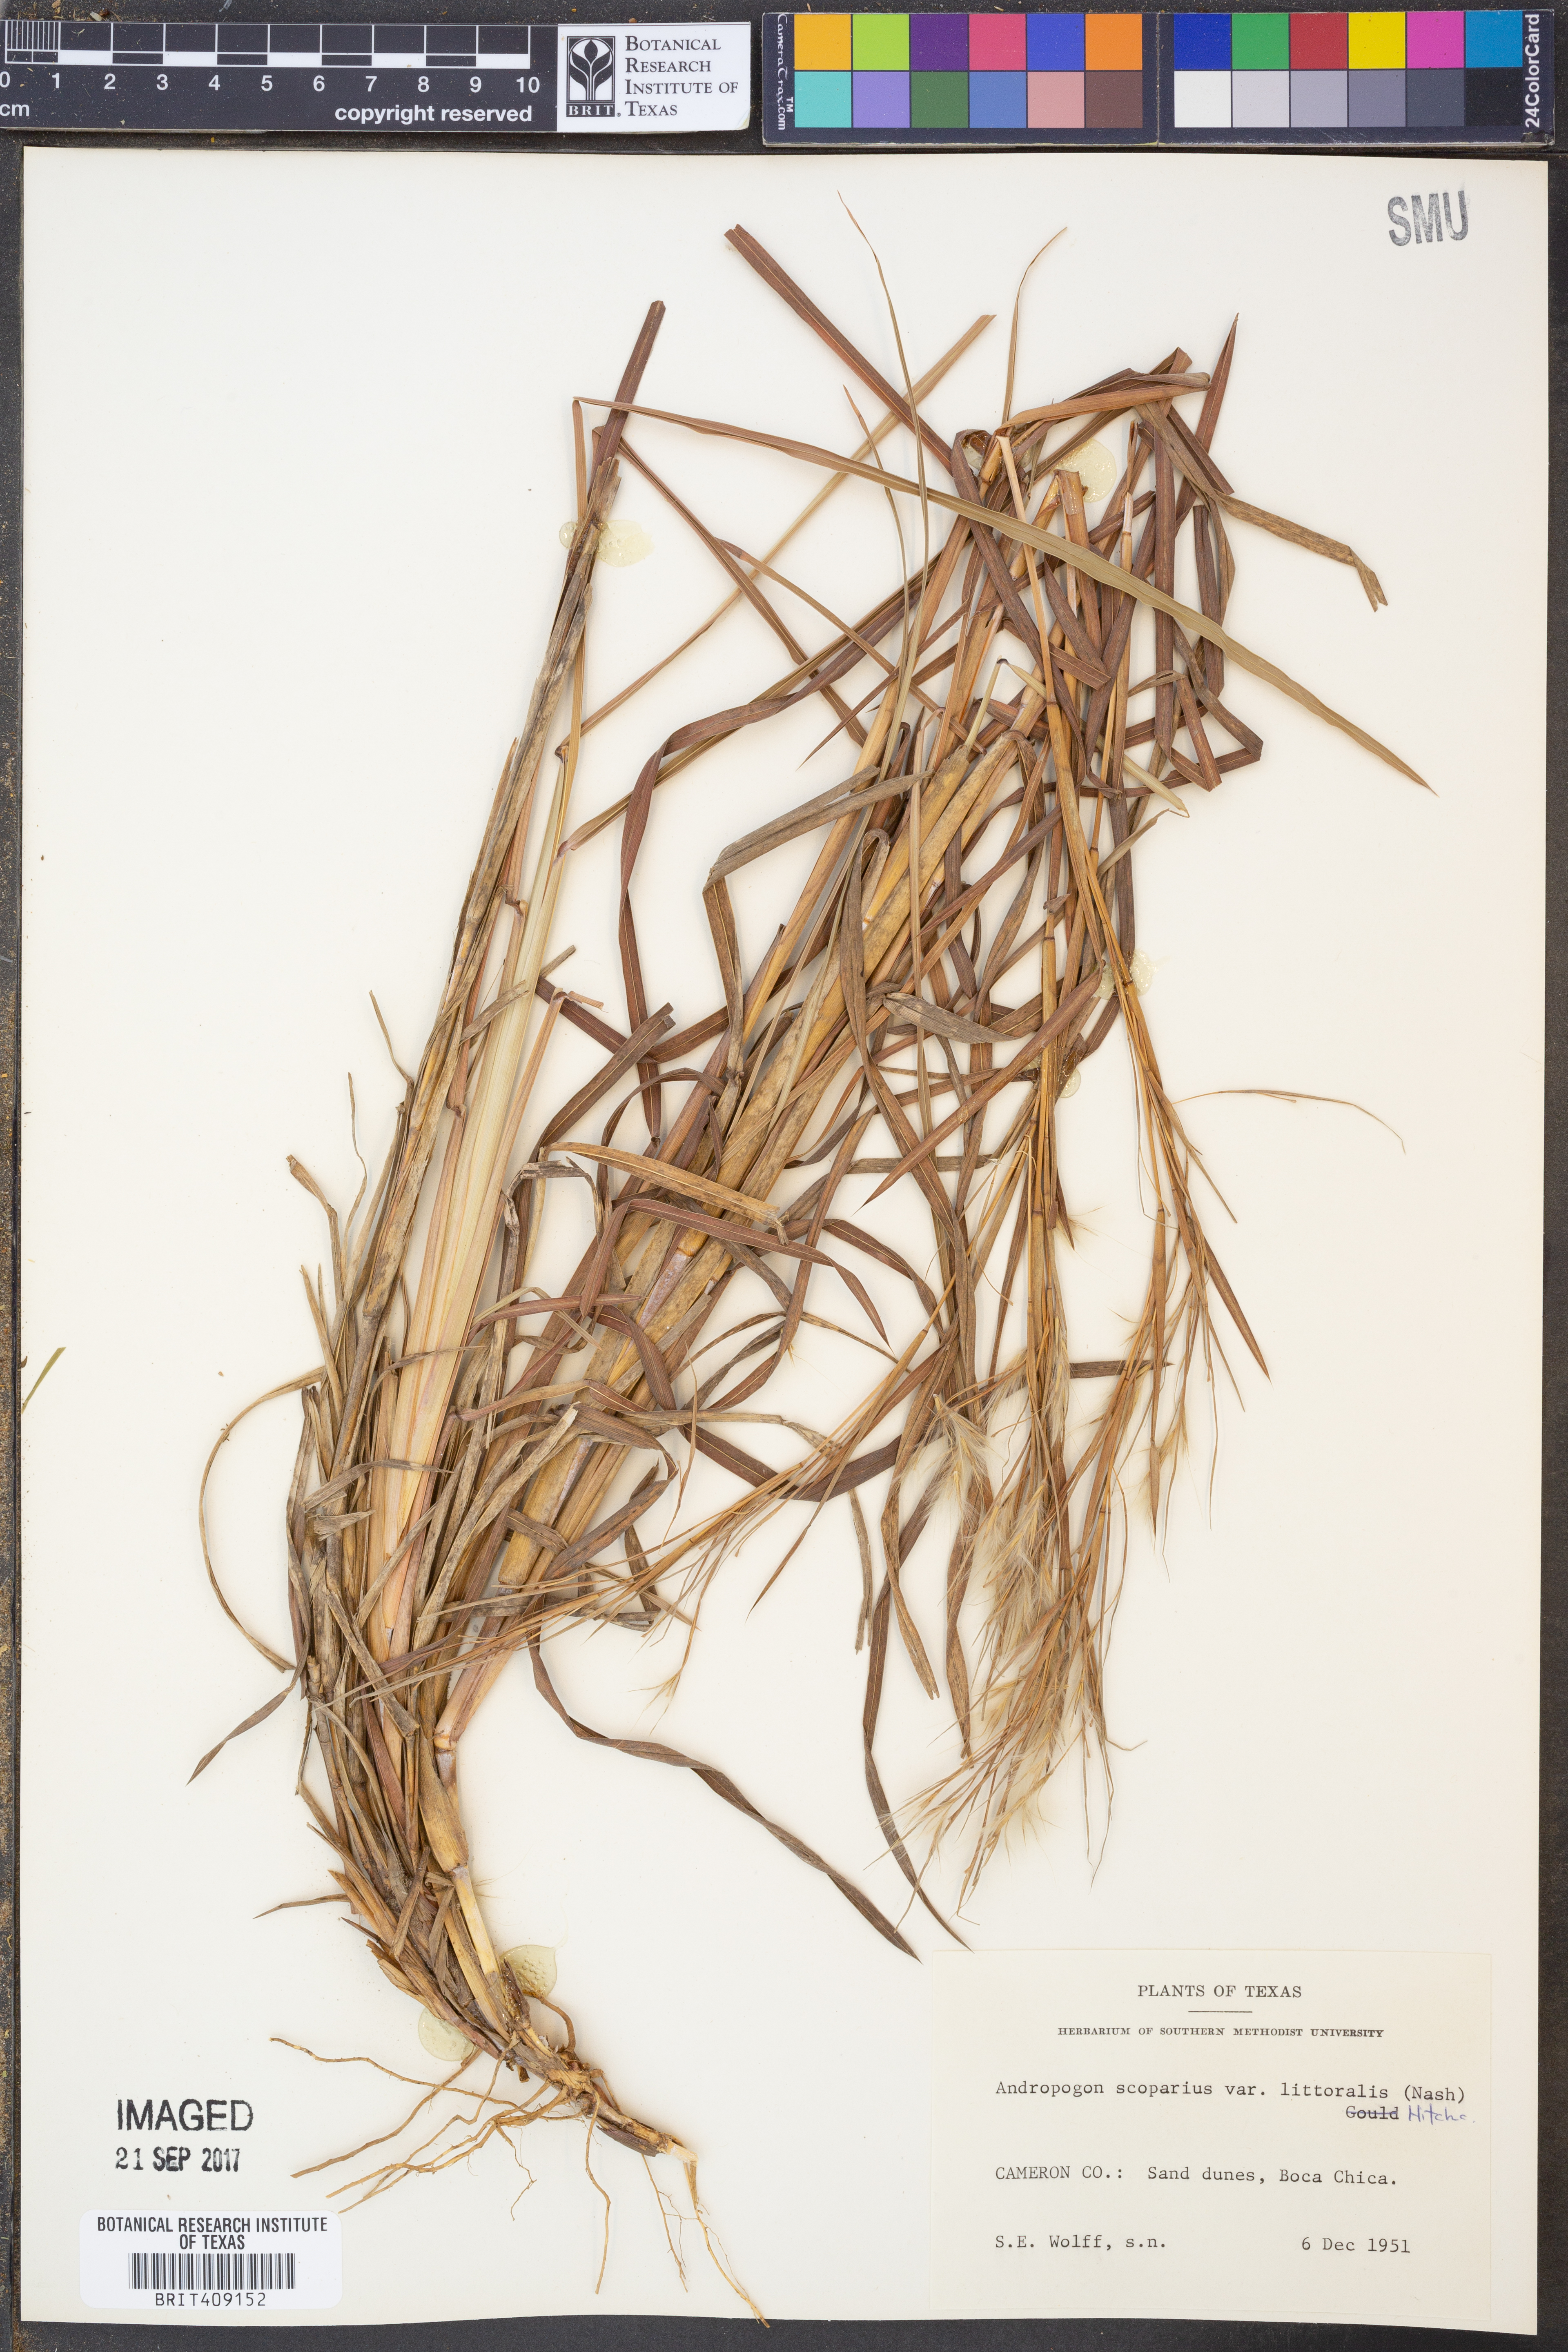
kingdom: Plantae
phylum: Tracheophyta
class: Liliopsida
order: Poales
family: Poaceae
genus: Schizachyrium
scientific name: Schizachyrium scoparium
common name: Little bluestem
